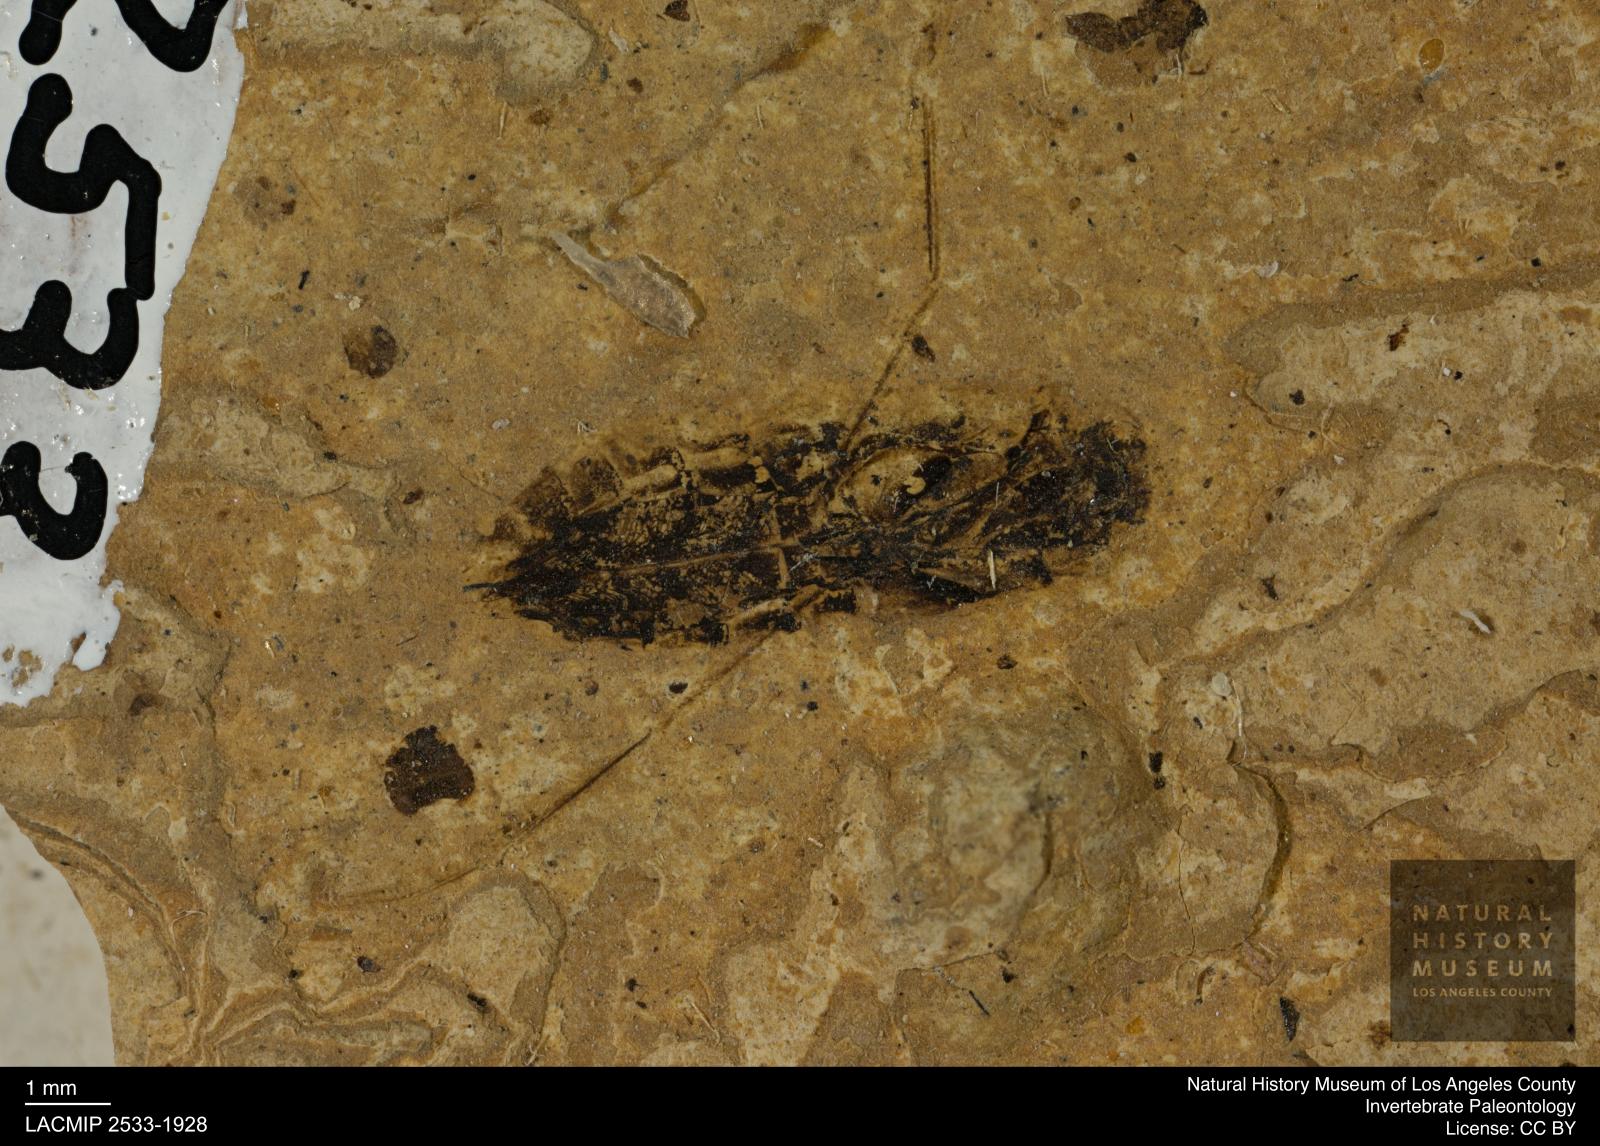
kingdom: Animalia
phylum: Arthropoda
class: Insecta
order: Hemiptera
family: Notonectidae
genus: Anisops
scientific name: Anisops Notonecta deichmuelleri
